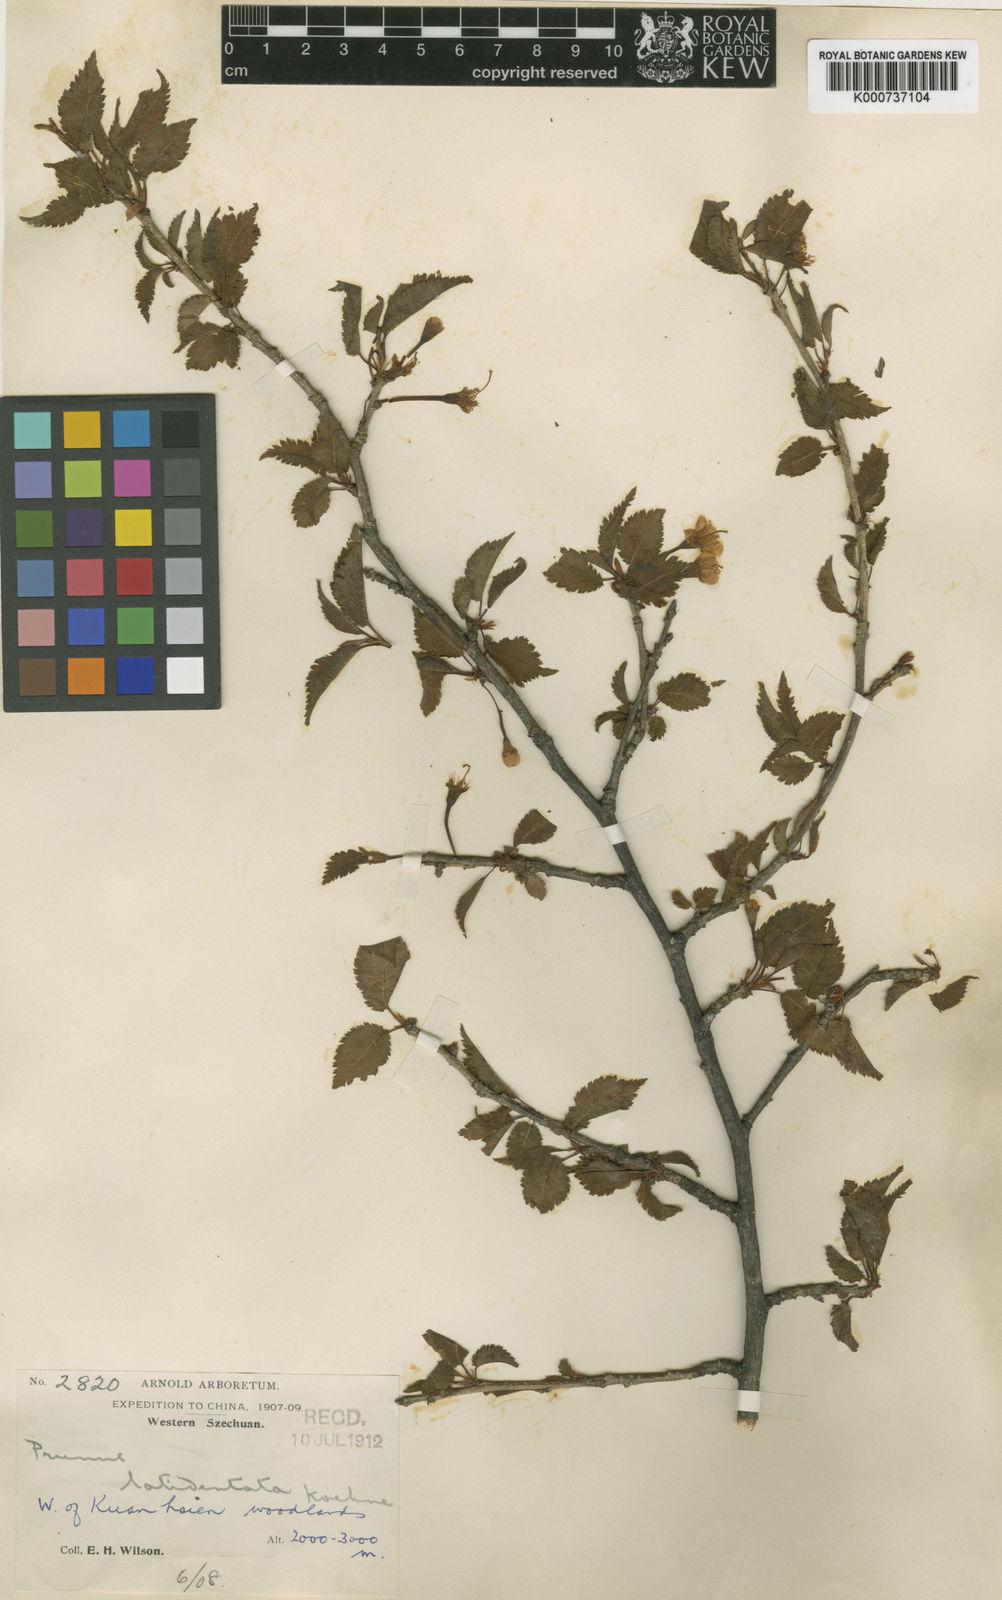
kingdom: Plantae
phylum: Tracheophyta
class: Magnoliopsida
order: Rosales
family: Rosaceae
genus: Prunus
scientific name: Prunus trichostoma
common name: Ribbed cherry
